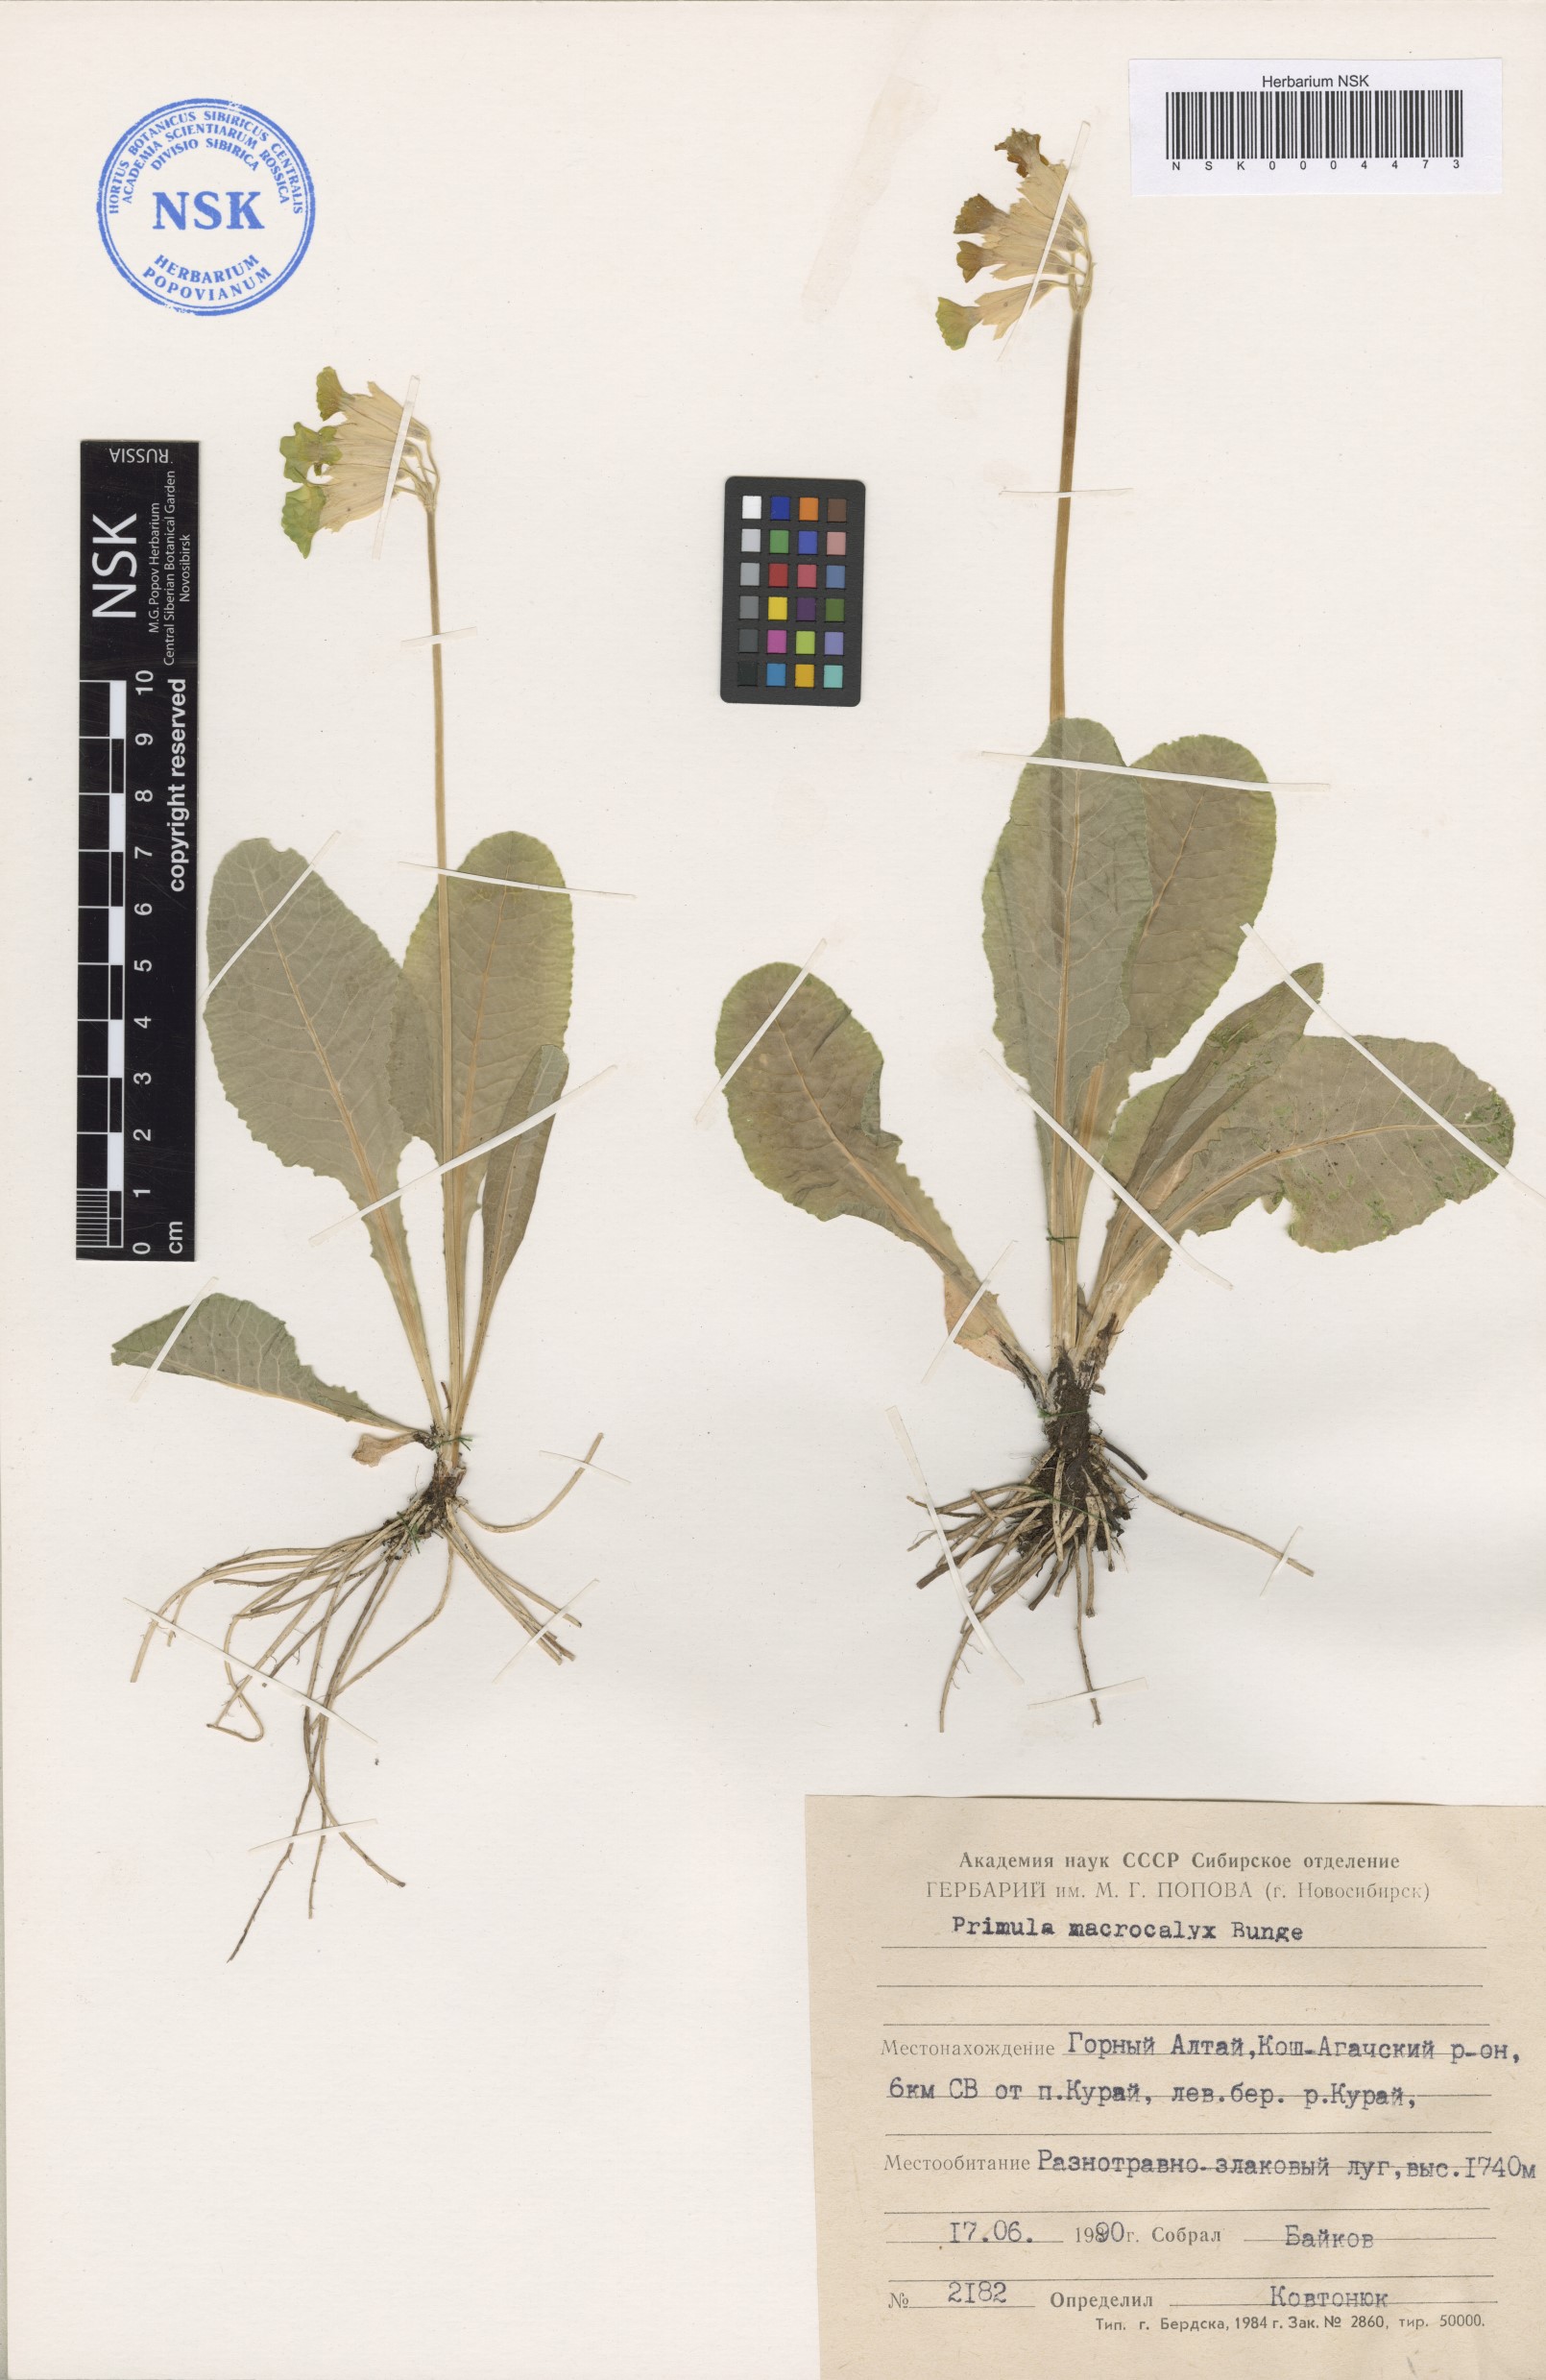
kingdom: Plantae
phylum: Tracheophyta
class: Magnoliopsida
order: Ericales
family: Primulaceae
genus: Primula
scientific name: Primula veris
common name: Cowslip
